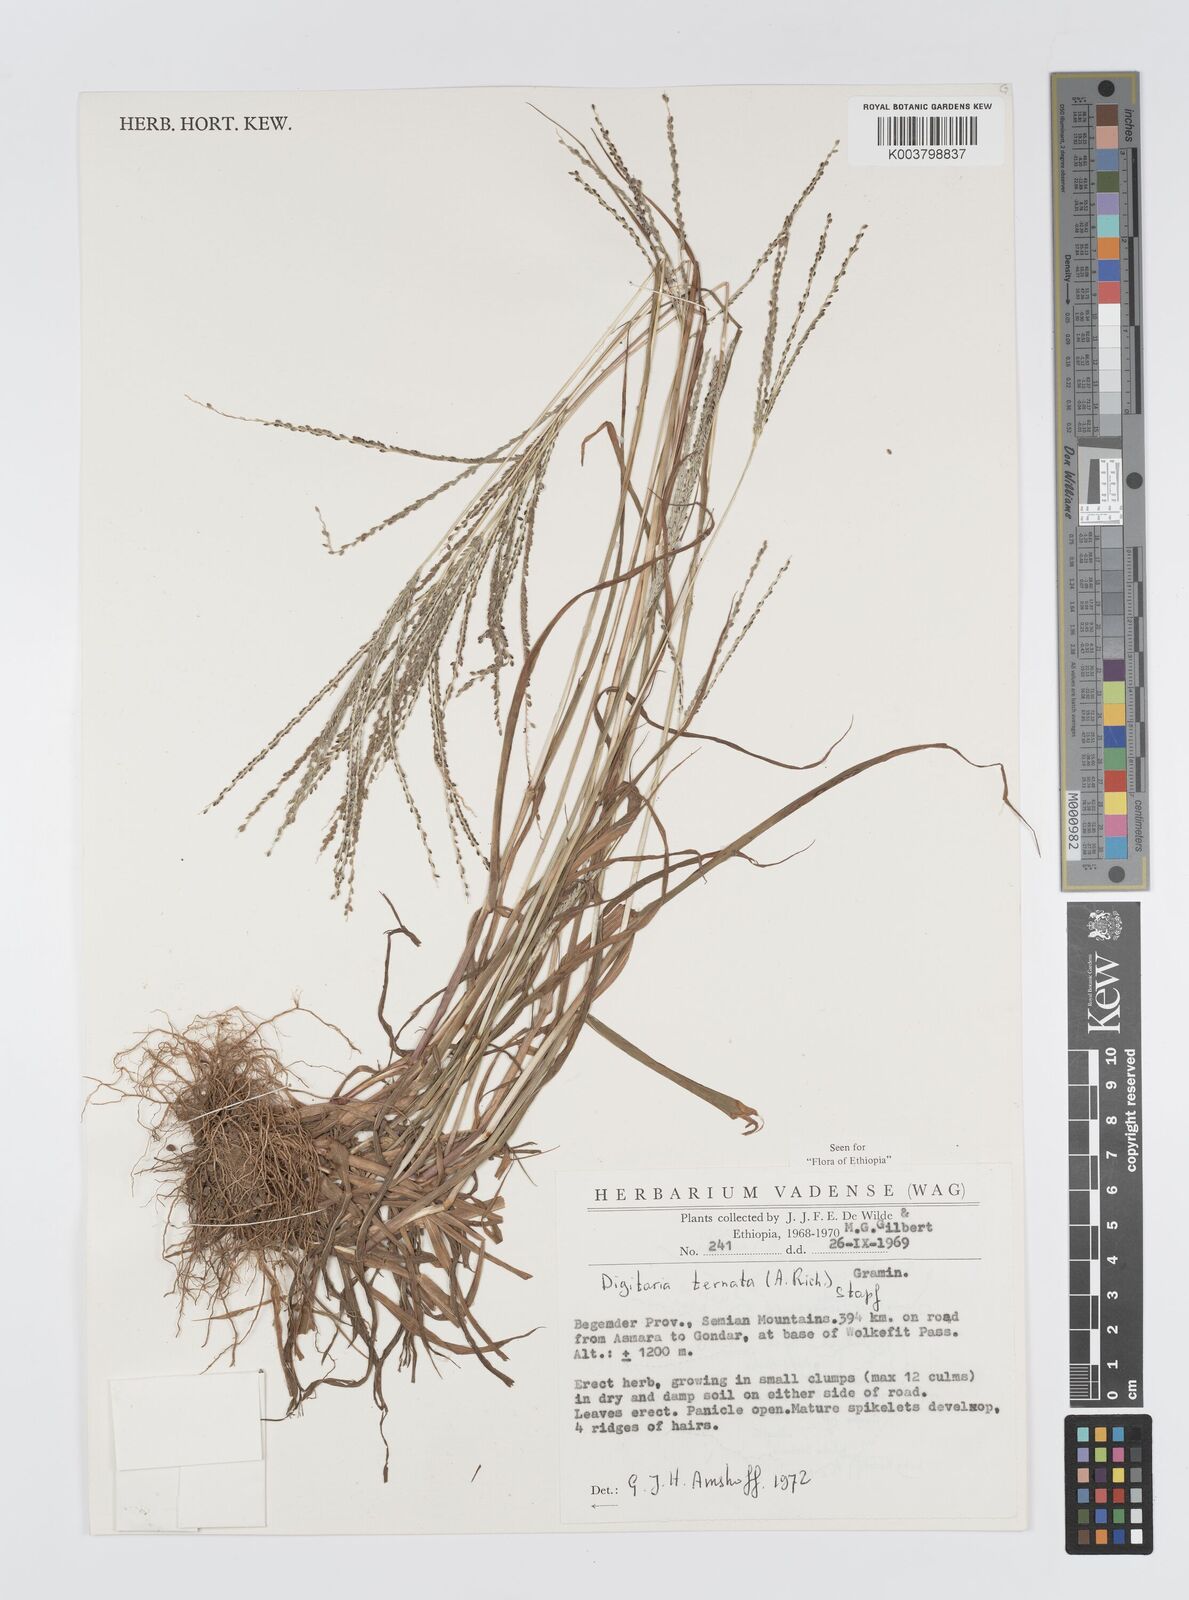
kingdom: Plantae
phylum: Tracheophyta
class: Liliopsida
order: Poales
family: Poaceae
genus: Digitaria
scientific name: Digitaria ternata
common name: Blackseed crabgrass
